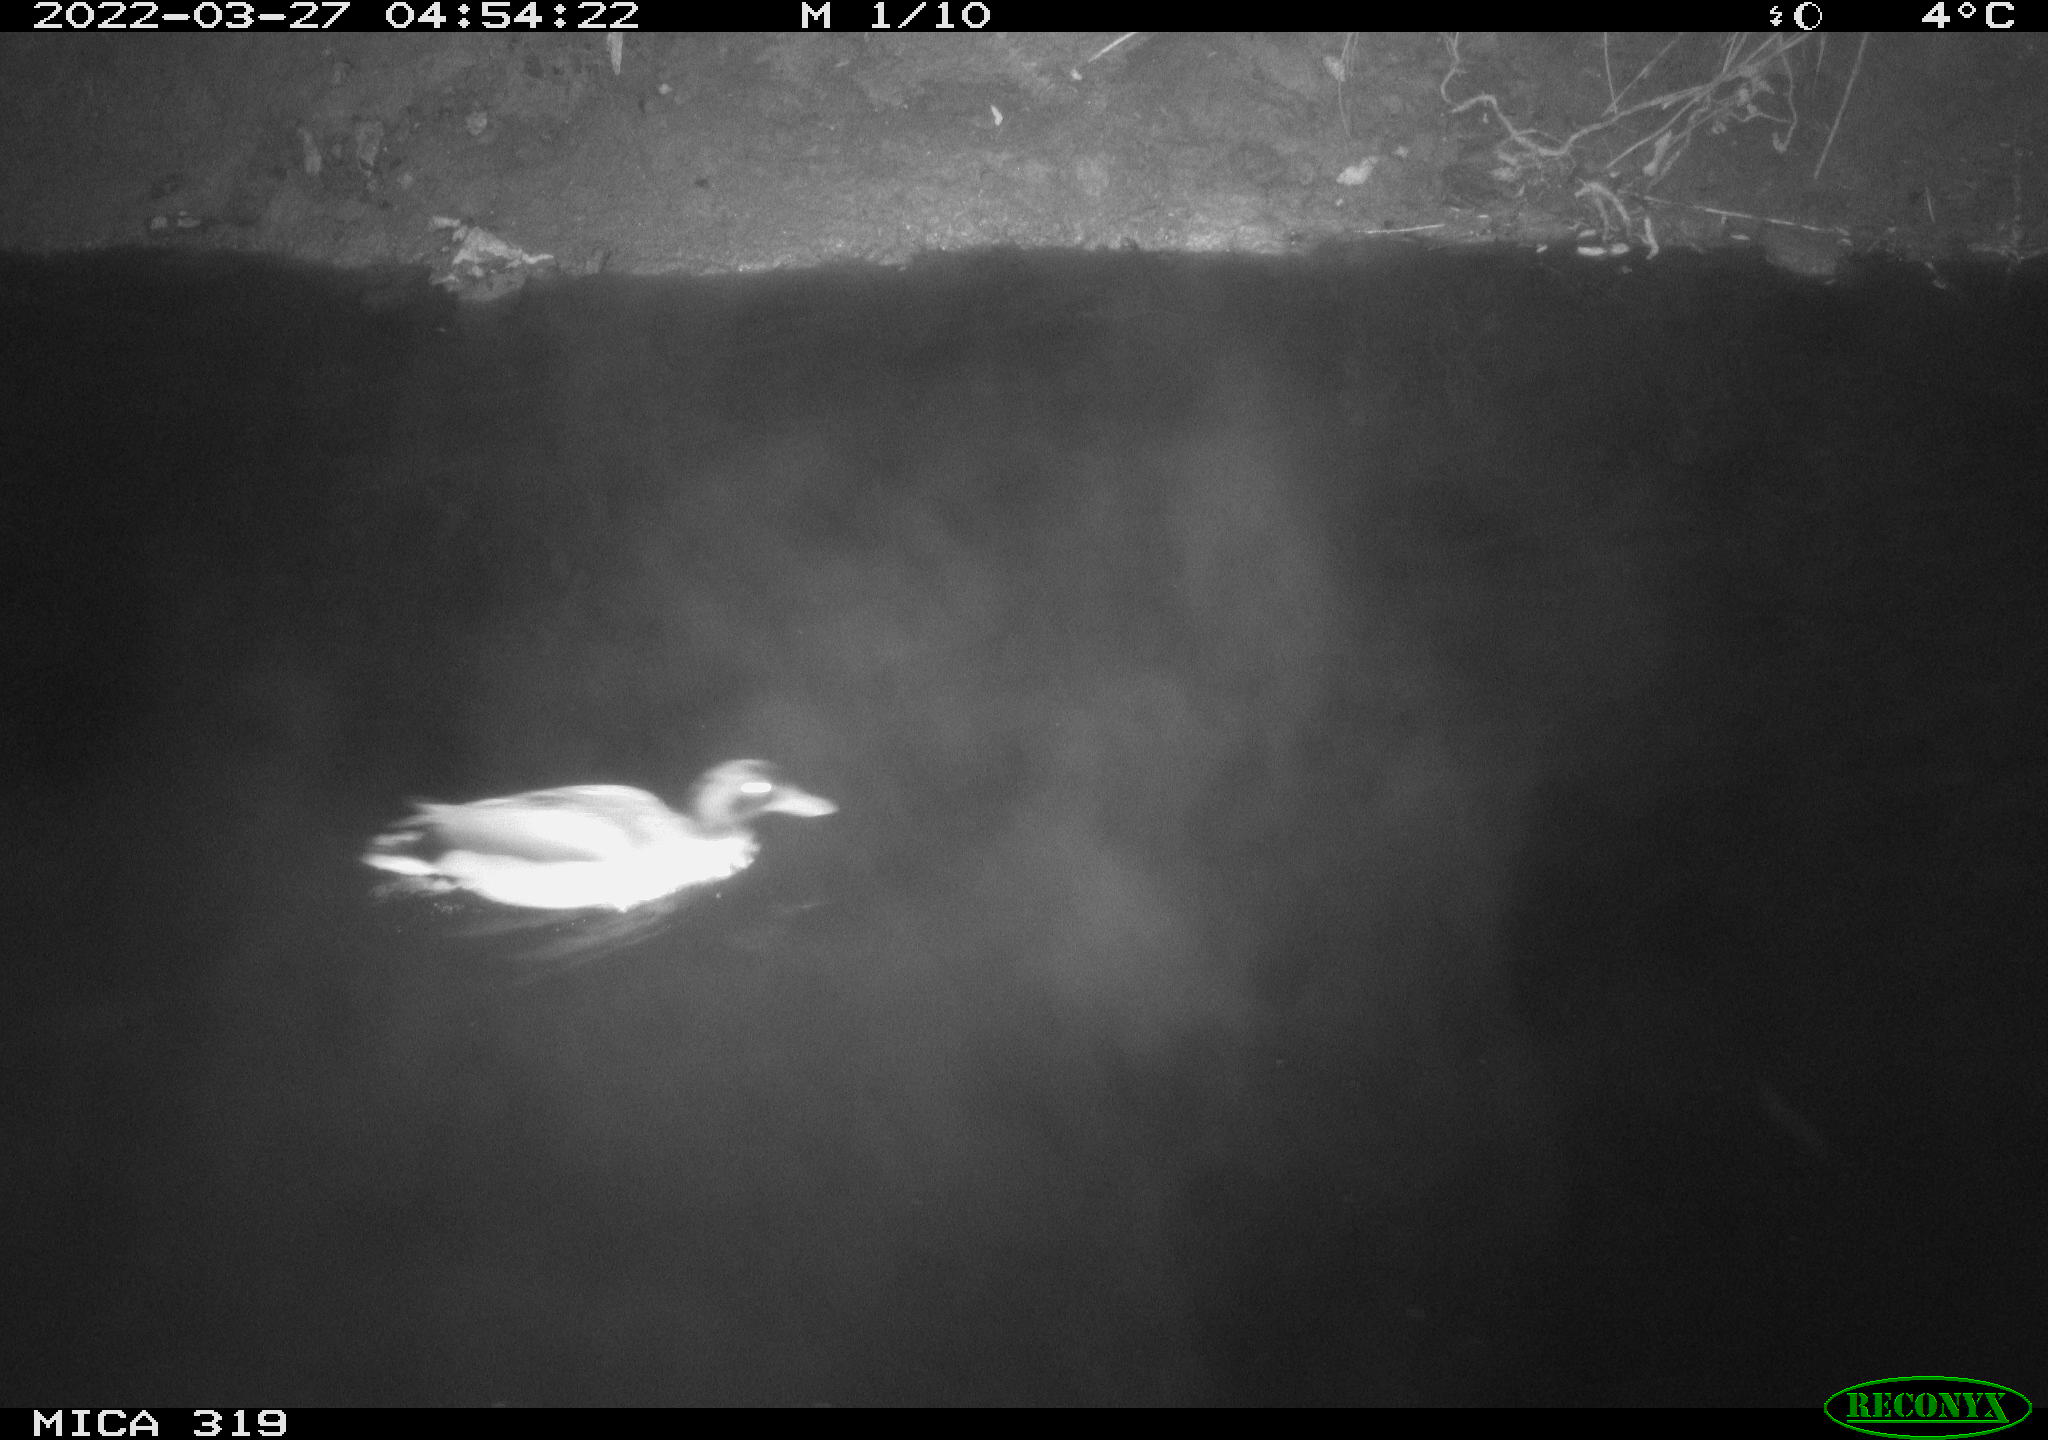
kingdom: Animalia
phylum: Chordata
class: Aves
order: Anseriformes
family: Anatidae
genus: Anas
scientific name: Anas platyrhynchos
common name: Mallard
